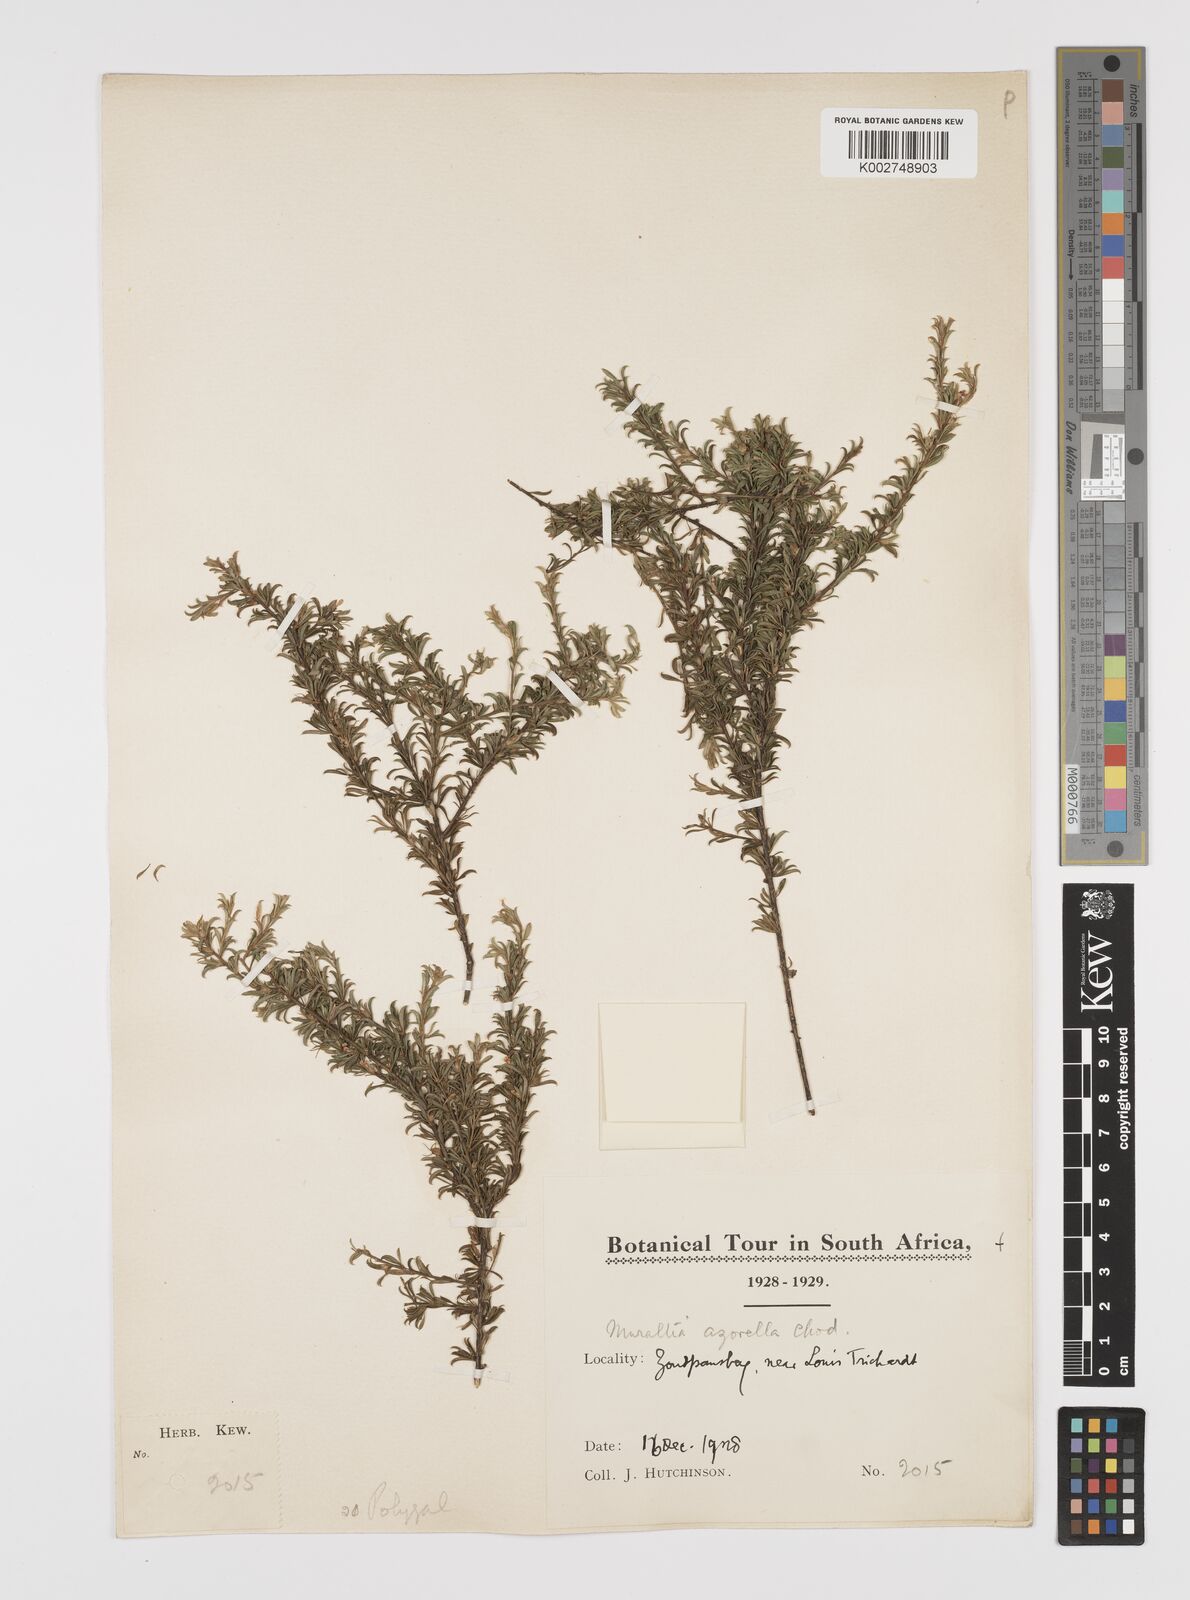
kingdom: Plantae
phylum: Tracheophyta
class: Magnoliopsida
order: Fabales
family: Polygalaceae
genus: Muraltia
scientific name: Muraltia empetroides
